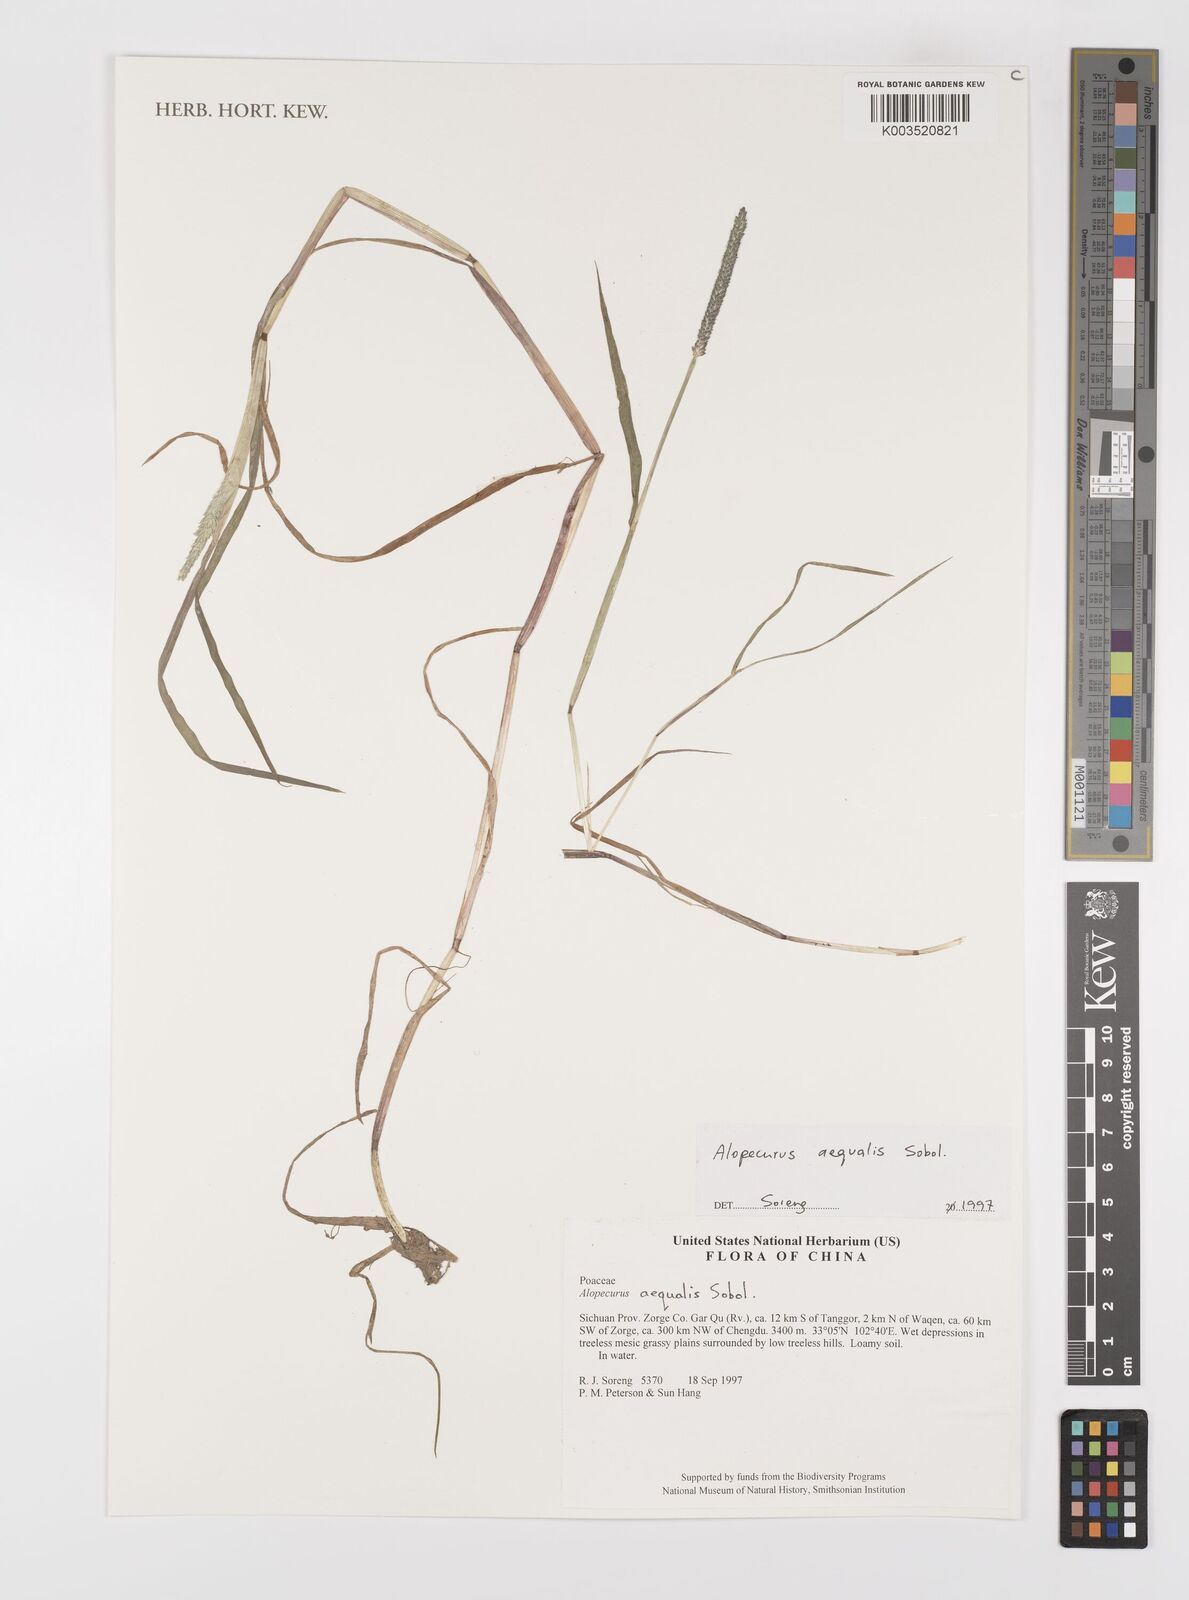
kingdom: Plantae
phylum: Tracheophyta
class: Liliopsida
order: Poales
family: Poaceae
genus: Alopecurus
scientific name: Alopecurus aequalis
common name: Orange foxtail
